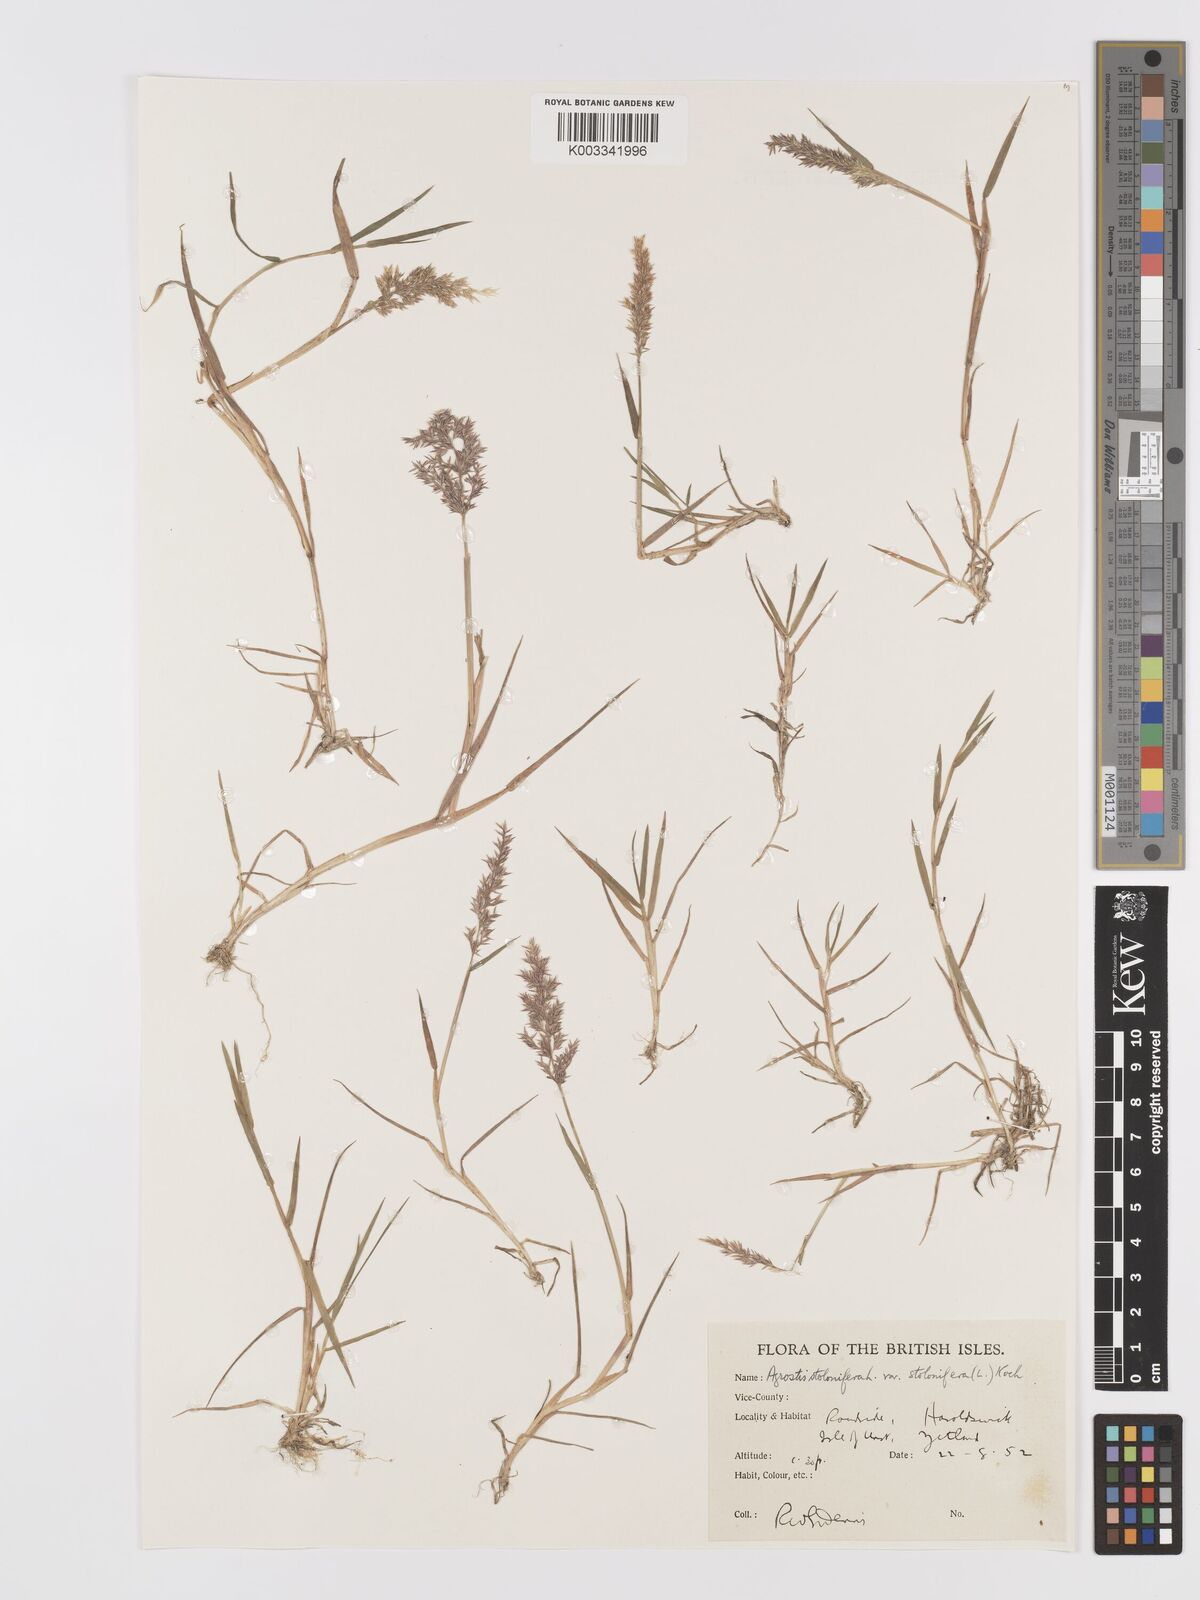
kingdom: Plantae
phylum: Tracheophyta
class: Liliopsida
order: Poales
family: Poaceae
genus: Agrostis
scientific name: Agrostis stolonifera
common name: Creeping bentgrass
